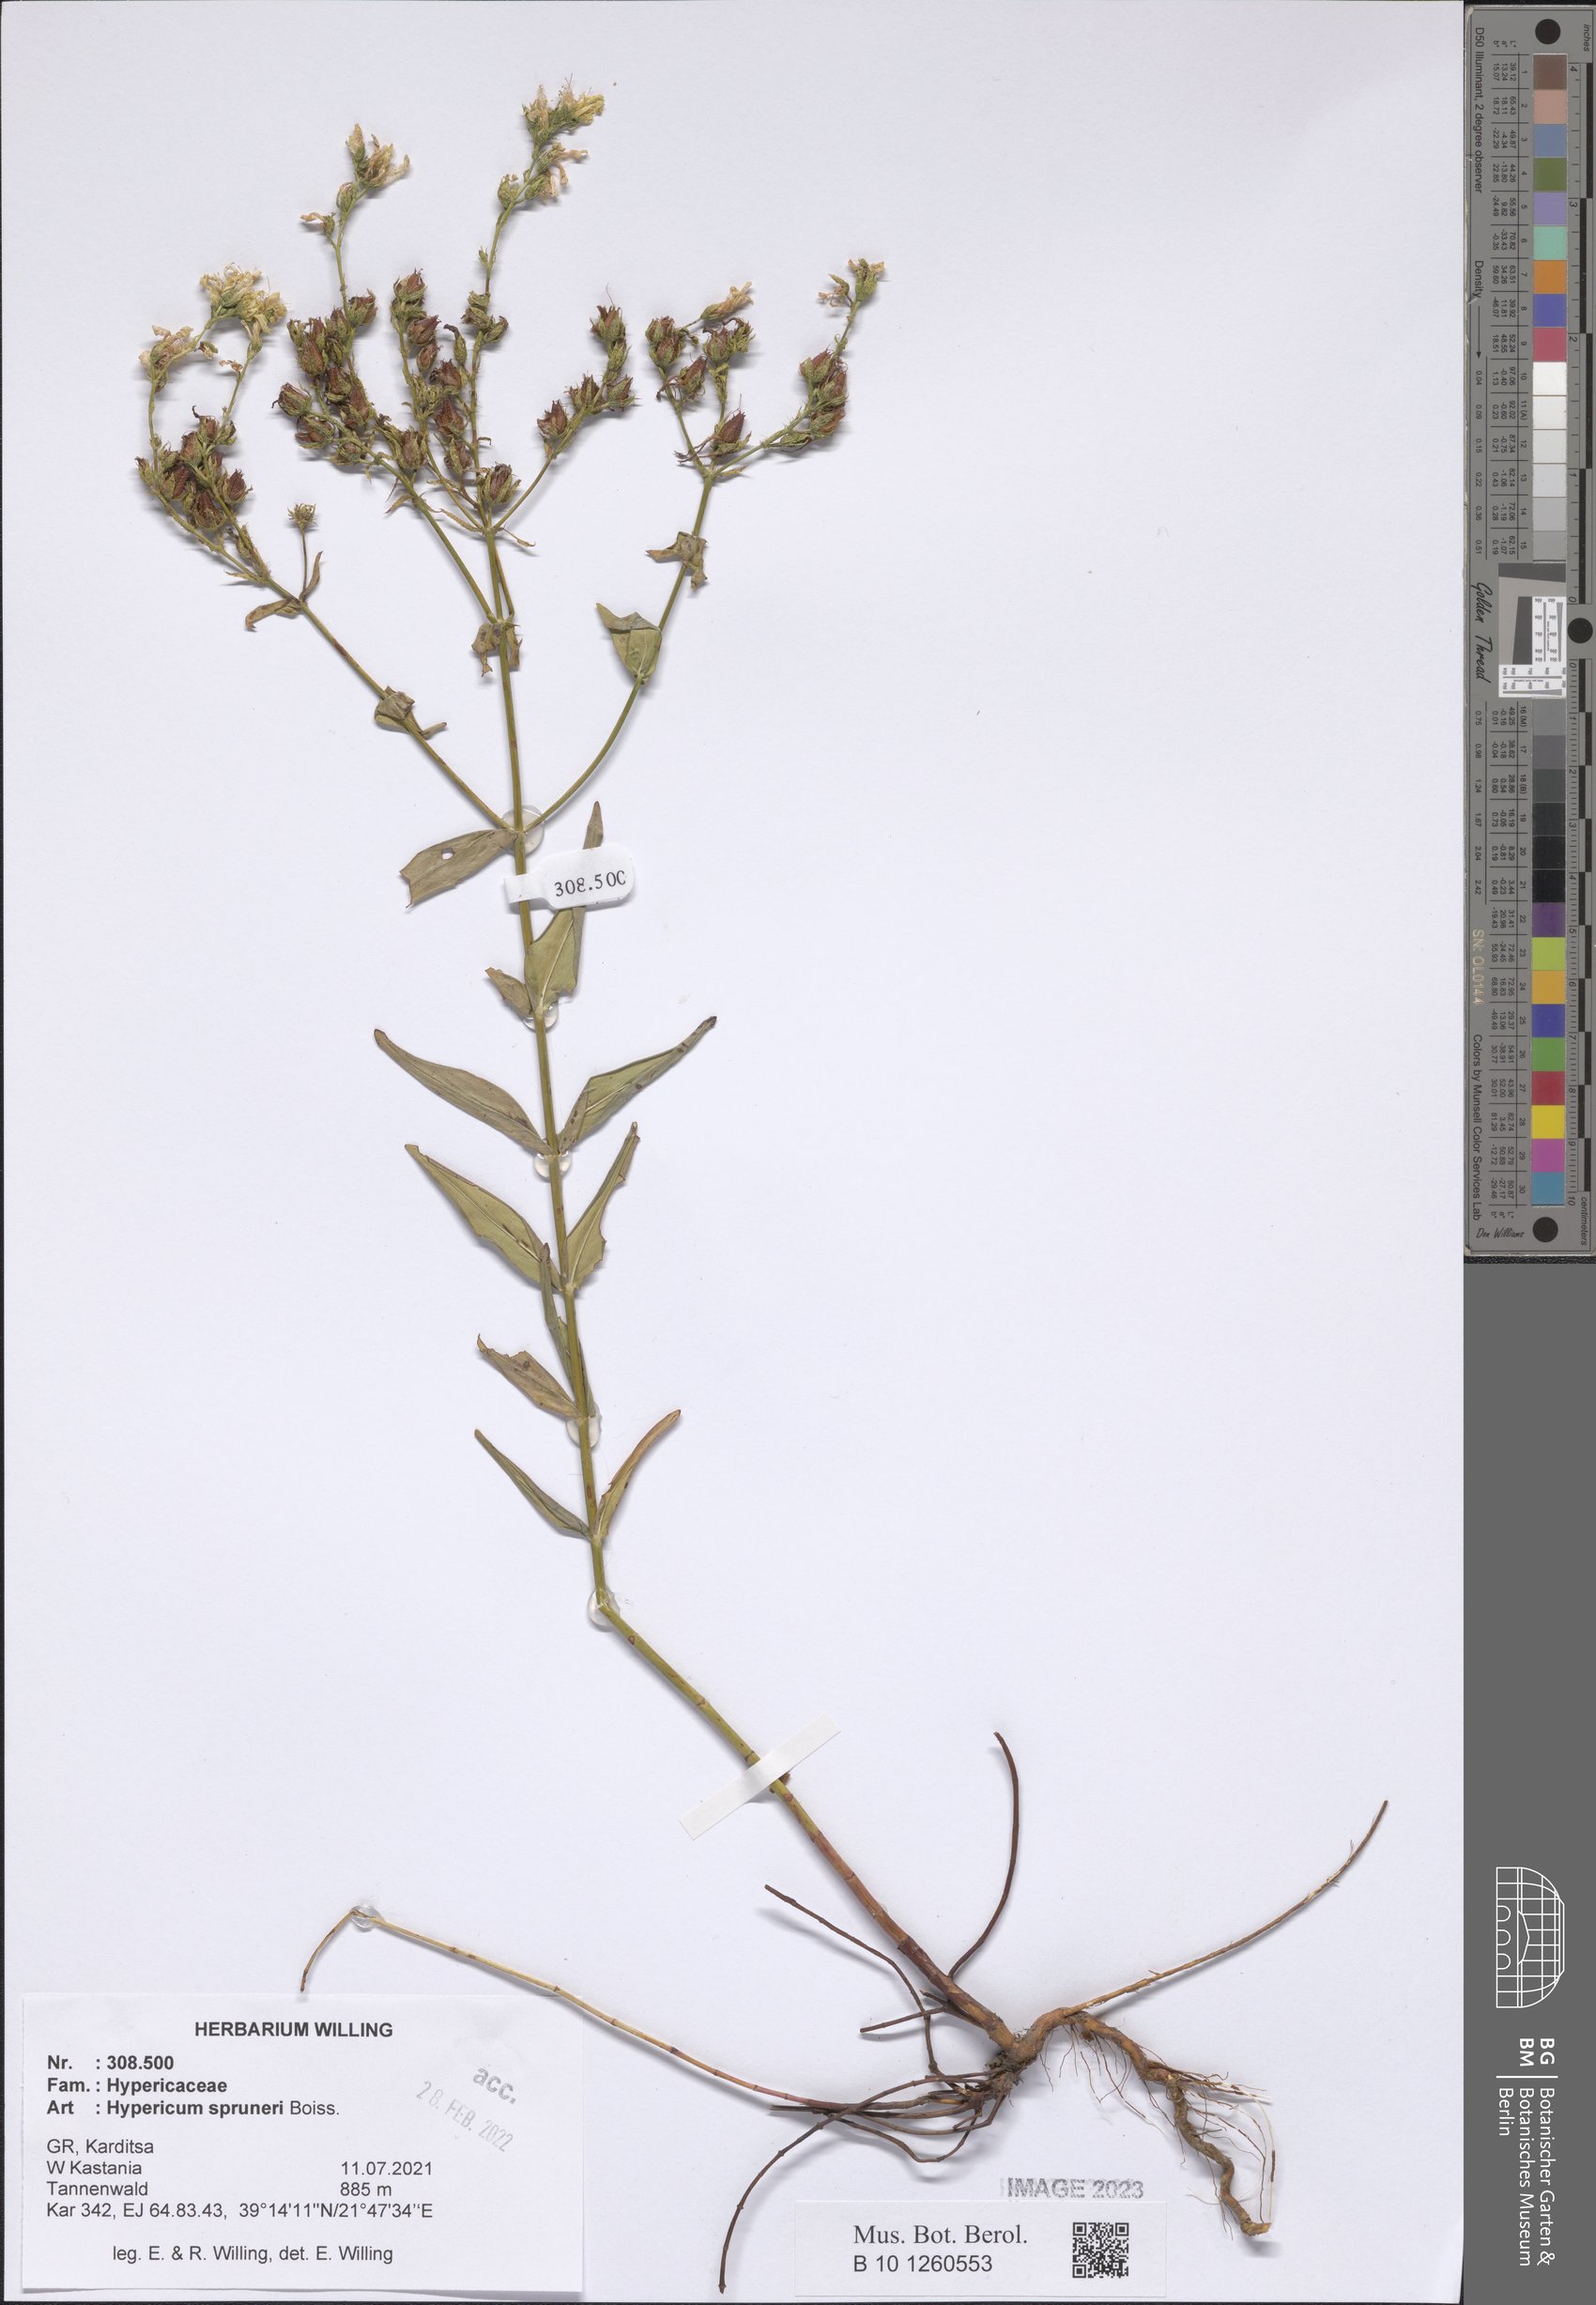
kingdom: Plantae
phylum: Tracheophyta
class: Magnoliopsida
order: Malpighiales
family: Hypericaceae
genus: Hypericum
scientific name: Hypericum spruneri
